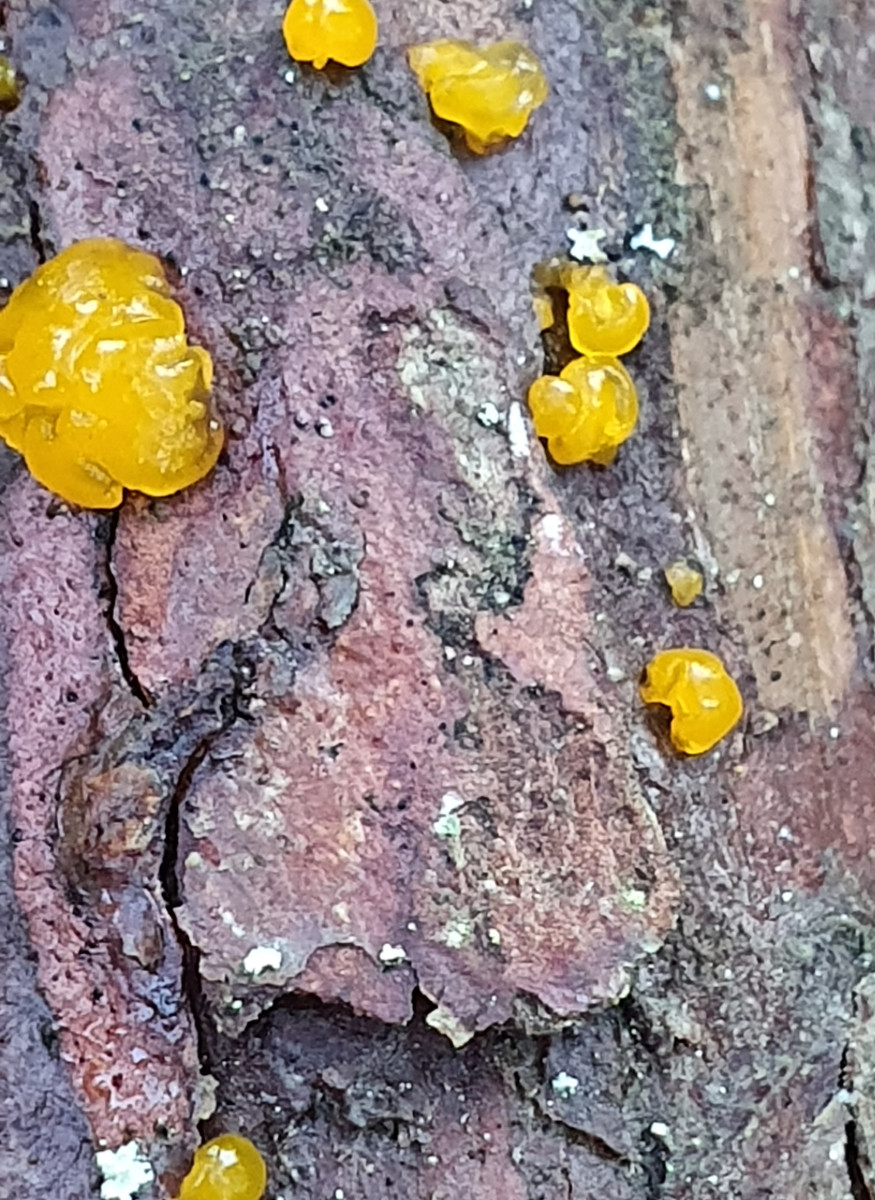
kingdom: Fungi
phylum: Basidiomycota
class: Dacrymycetes
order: Dacrymycetales
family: Dacrymycetaceae
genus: Dacrymyces
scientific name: Dacrymyces
